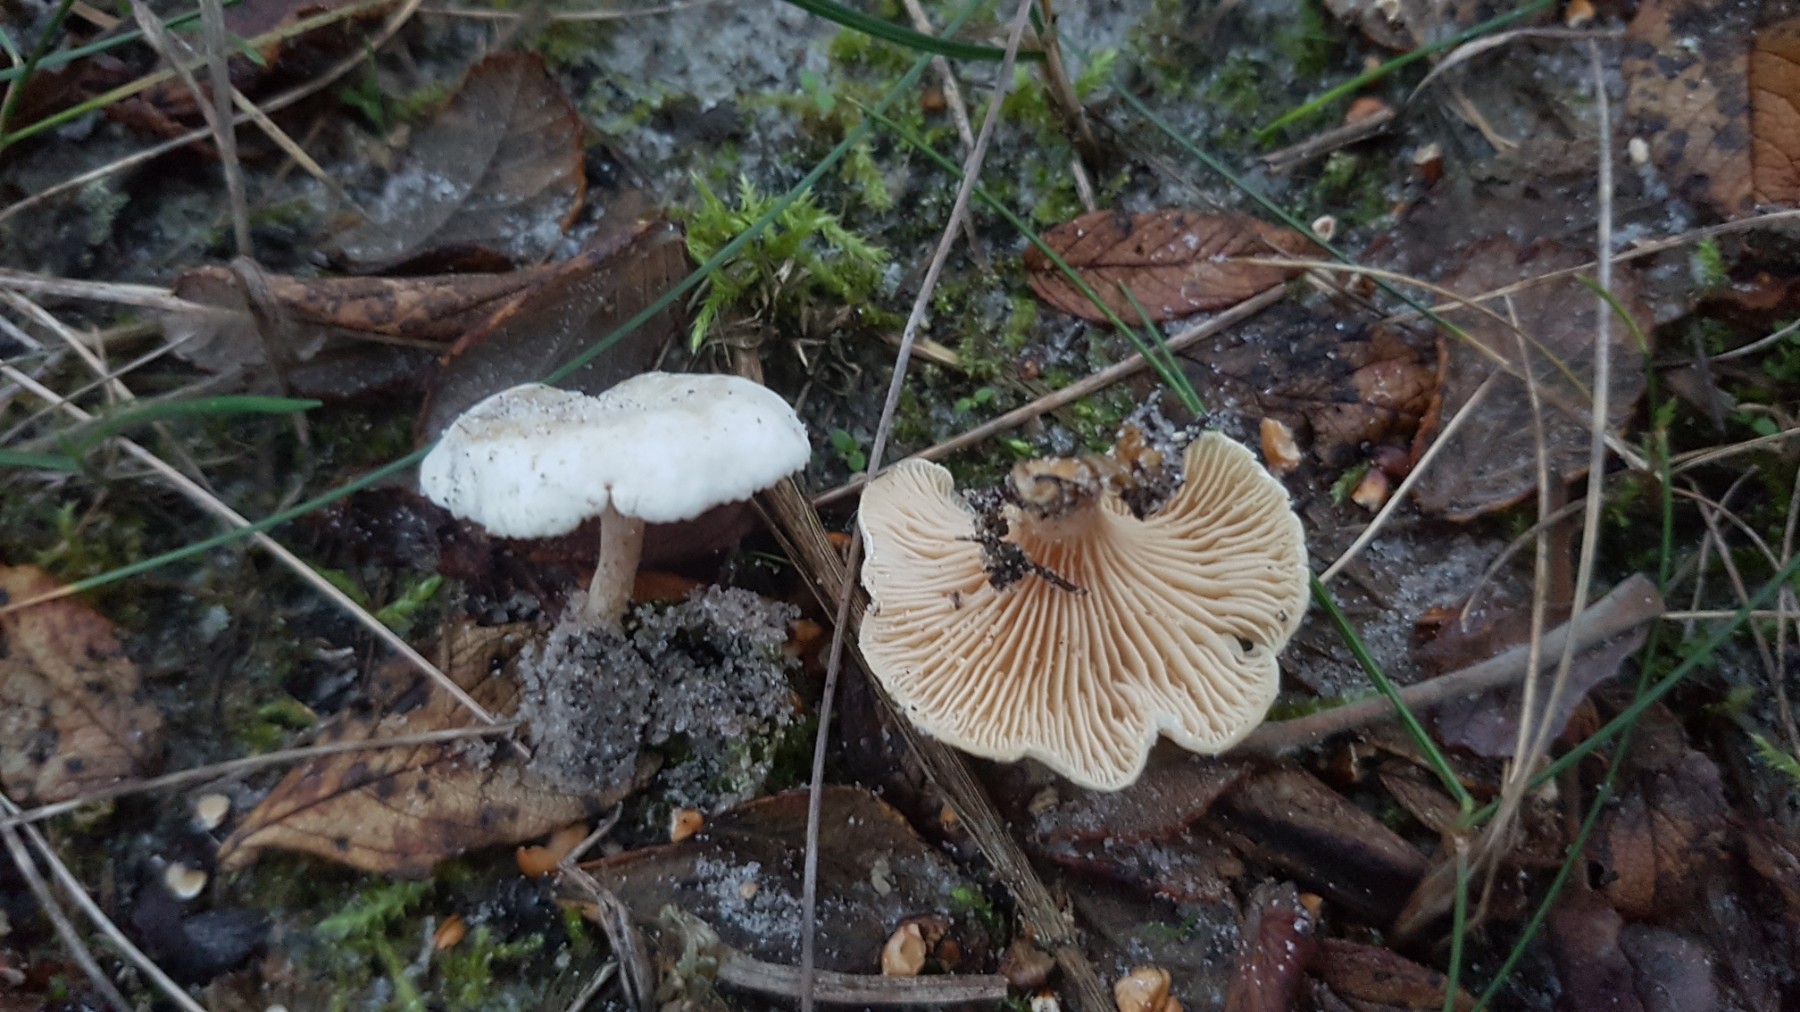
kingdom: Fungi
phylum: Basidiomycota
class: Agaricomycetes
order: Agaricales
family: Entolomataceae
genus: Clitocella
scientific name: Clitocella
